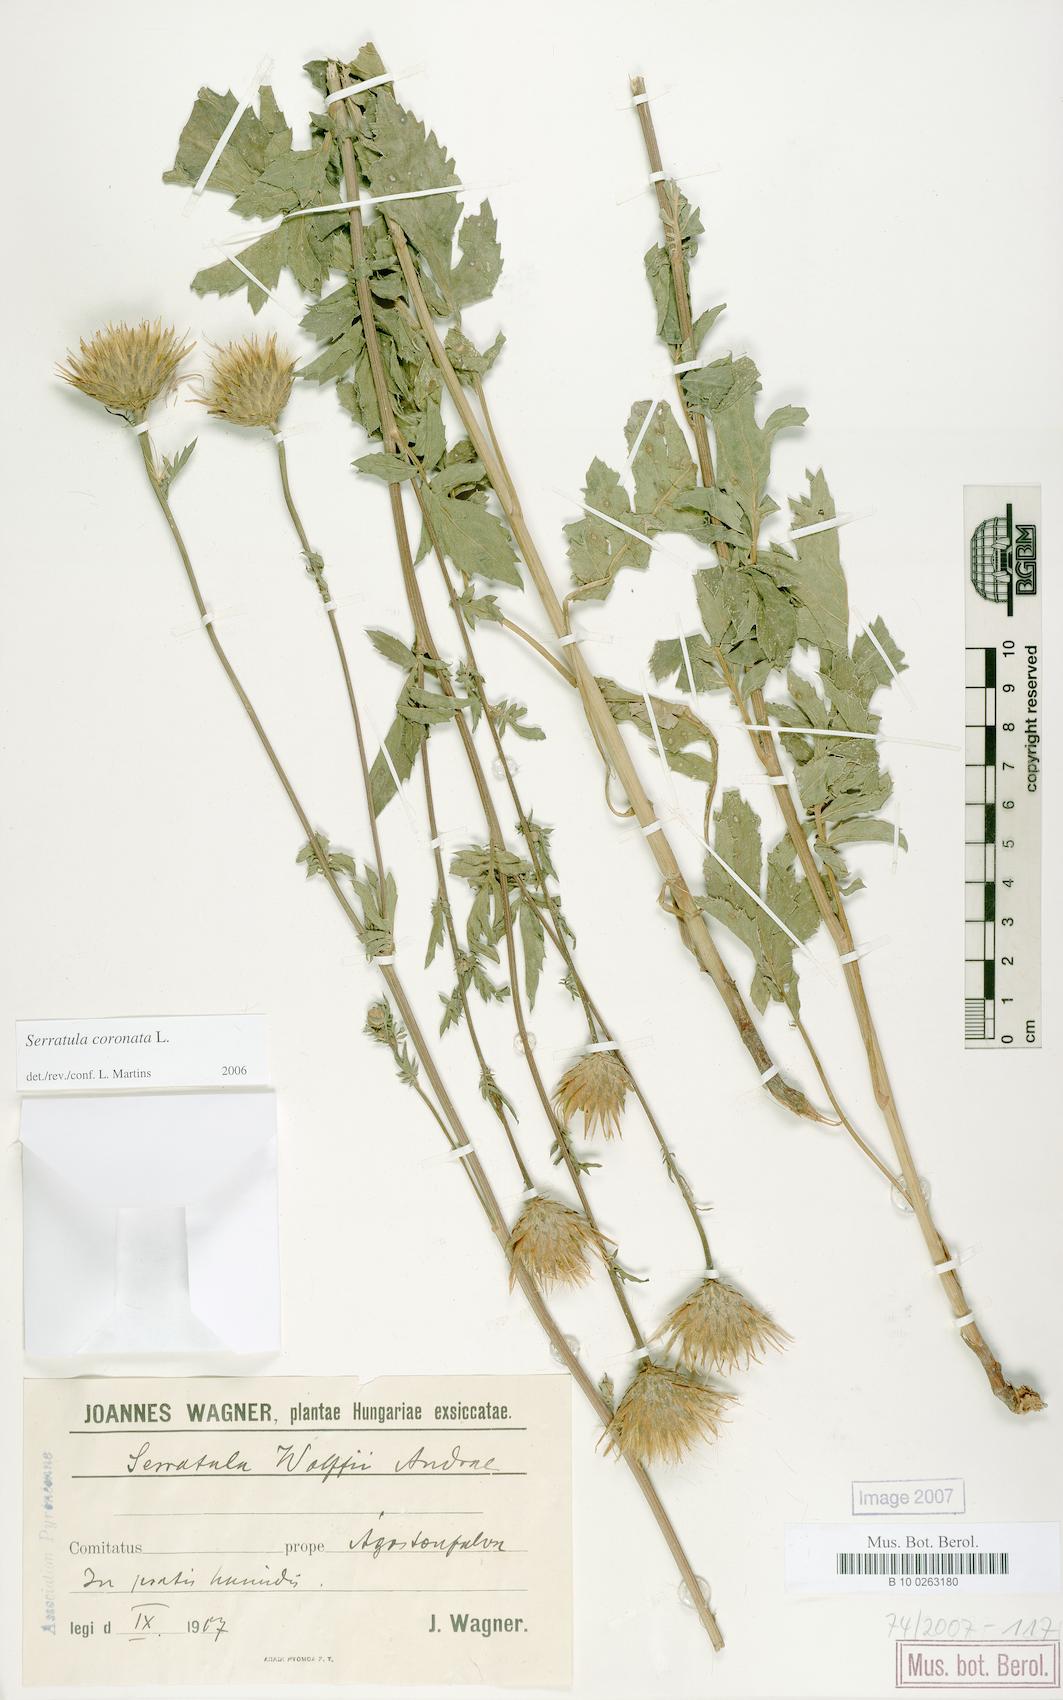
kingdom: Plantae
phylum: Tracheophyta
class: Magnoliopsida
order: Asterales
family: Asteraceae
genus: Serratula
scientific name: Serratula coronata
